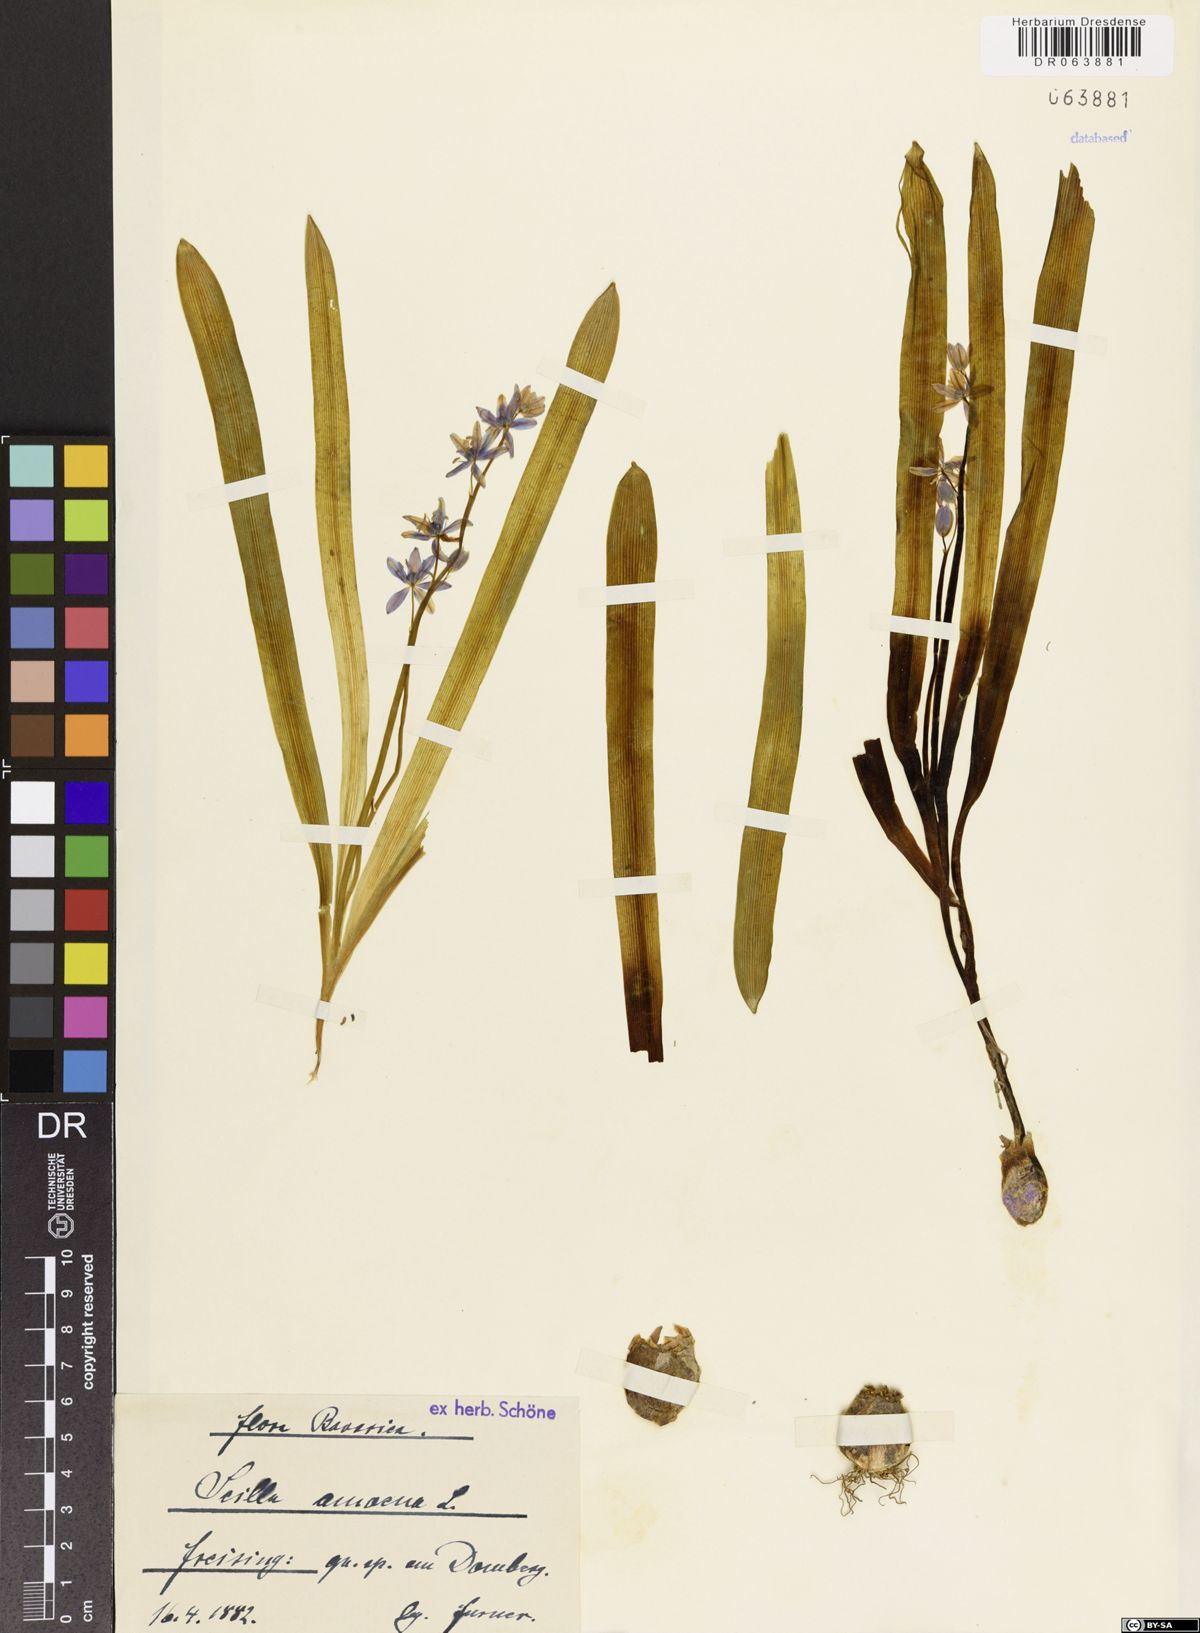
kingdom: Plantae
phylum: Tracheophyta
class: Liliopsida
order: Asparagales
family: Asparagaceae
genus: Scilla
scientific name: Scilla amoena
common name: Star-hyacinth
